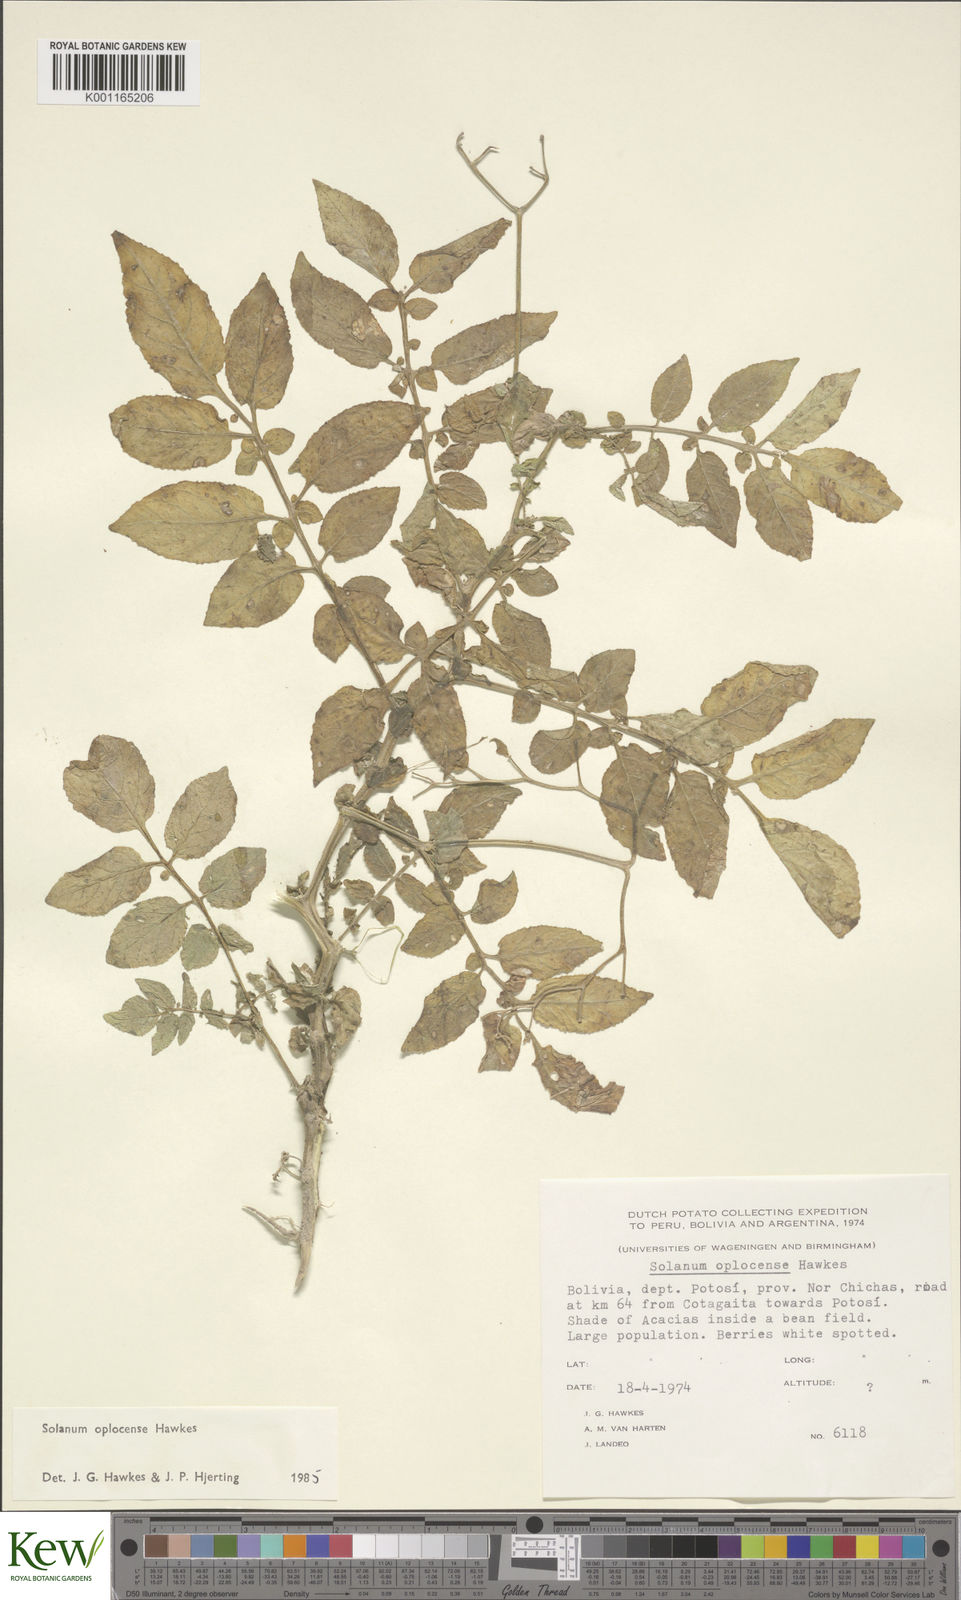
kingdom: Plantae
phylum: Tracheophyta
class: Magnoliopsida
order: Solanales
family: Solanaceae
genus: Solanum
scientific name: Solanum brevicaule
